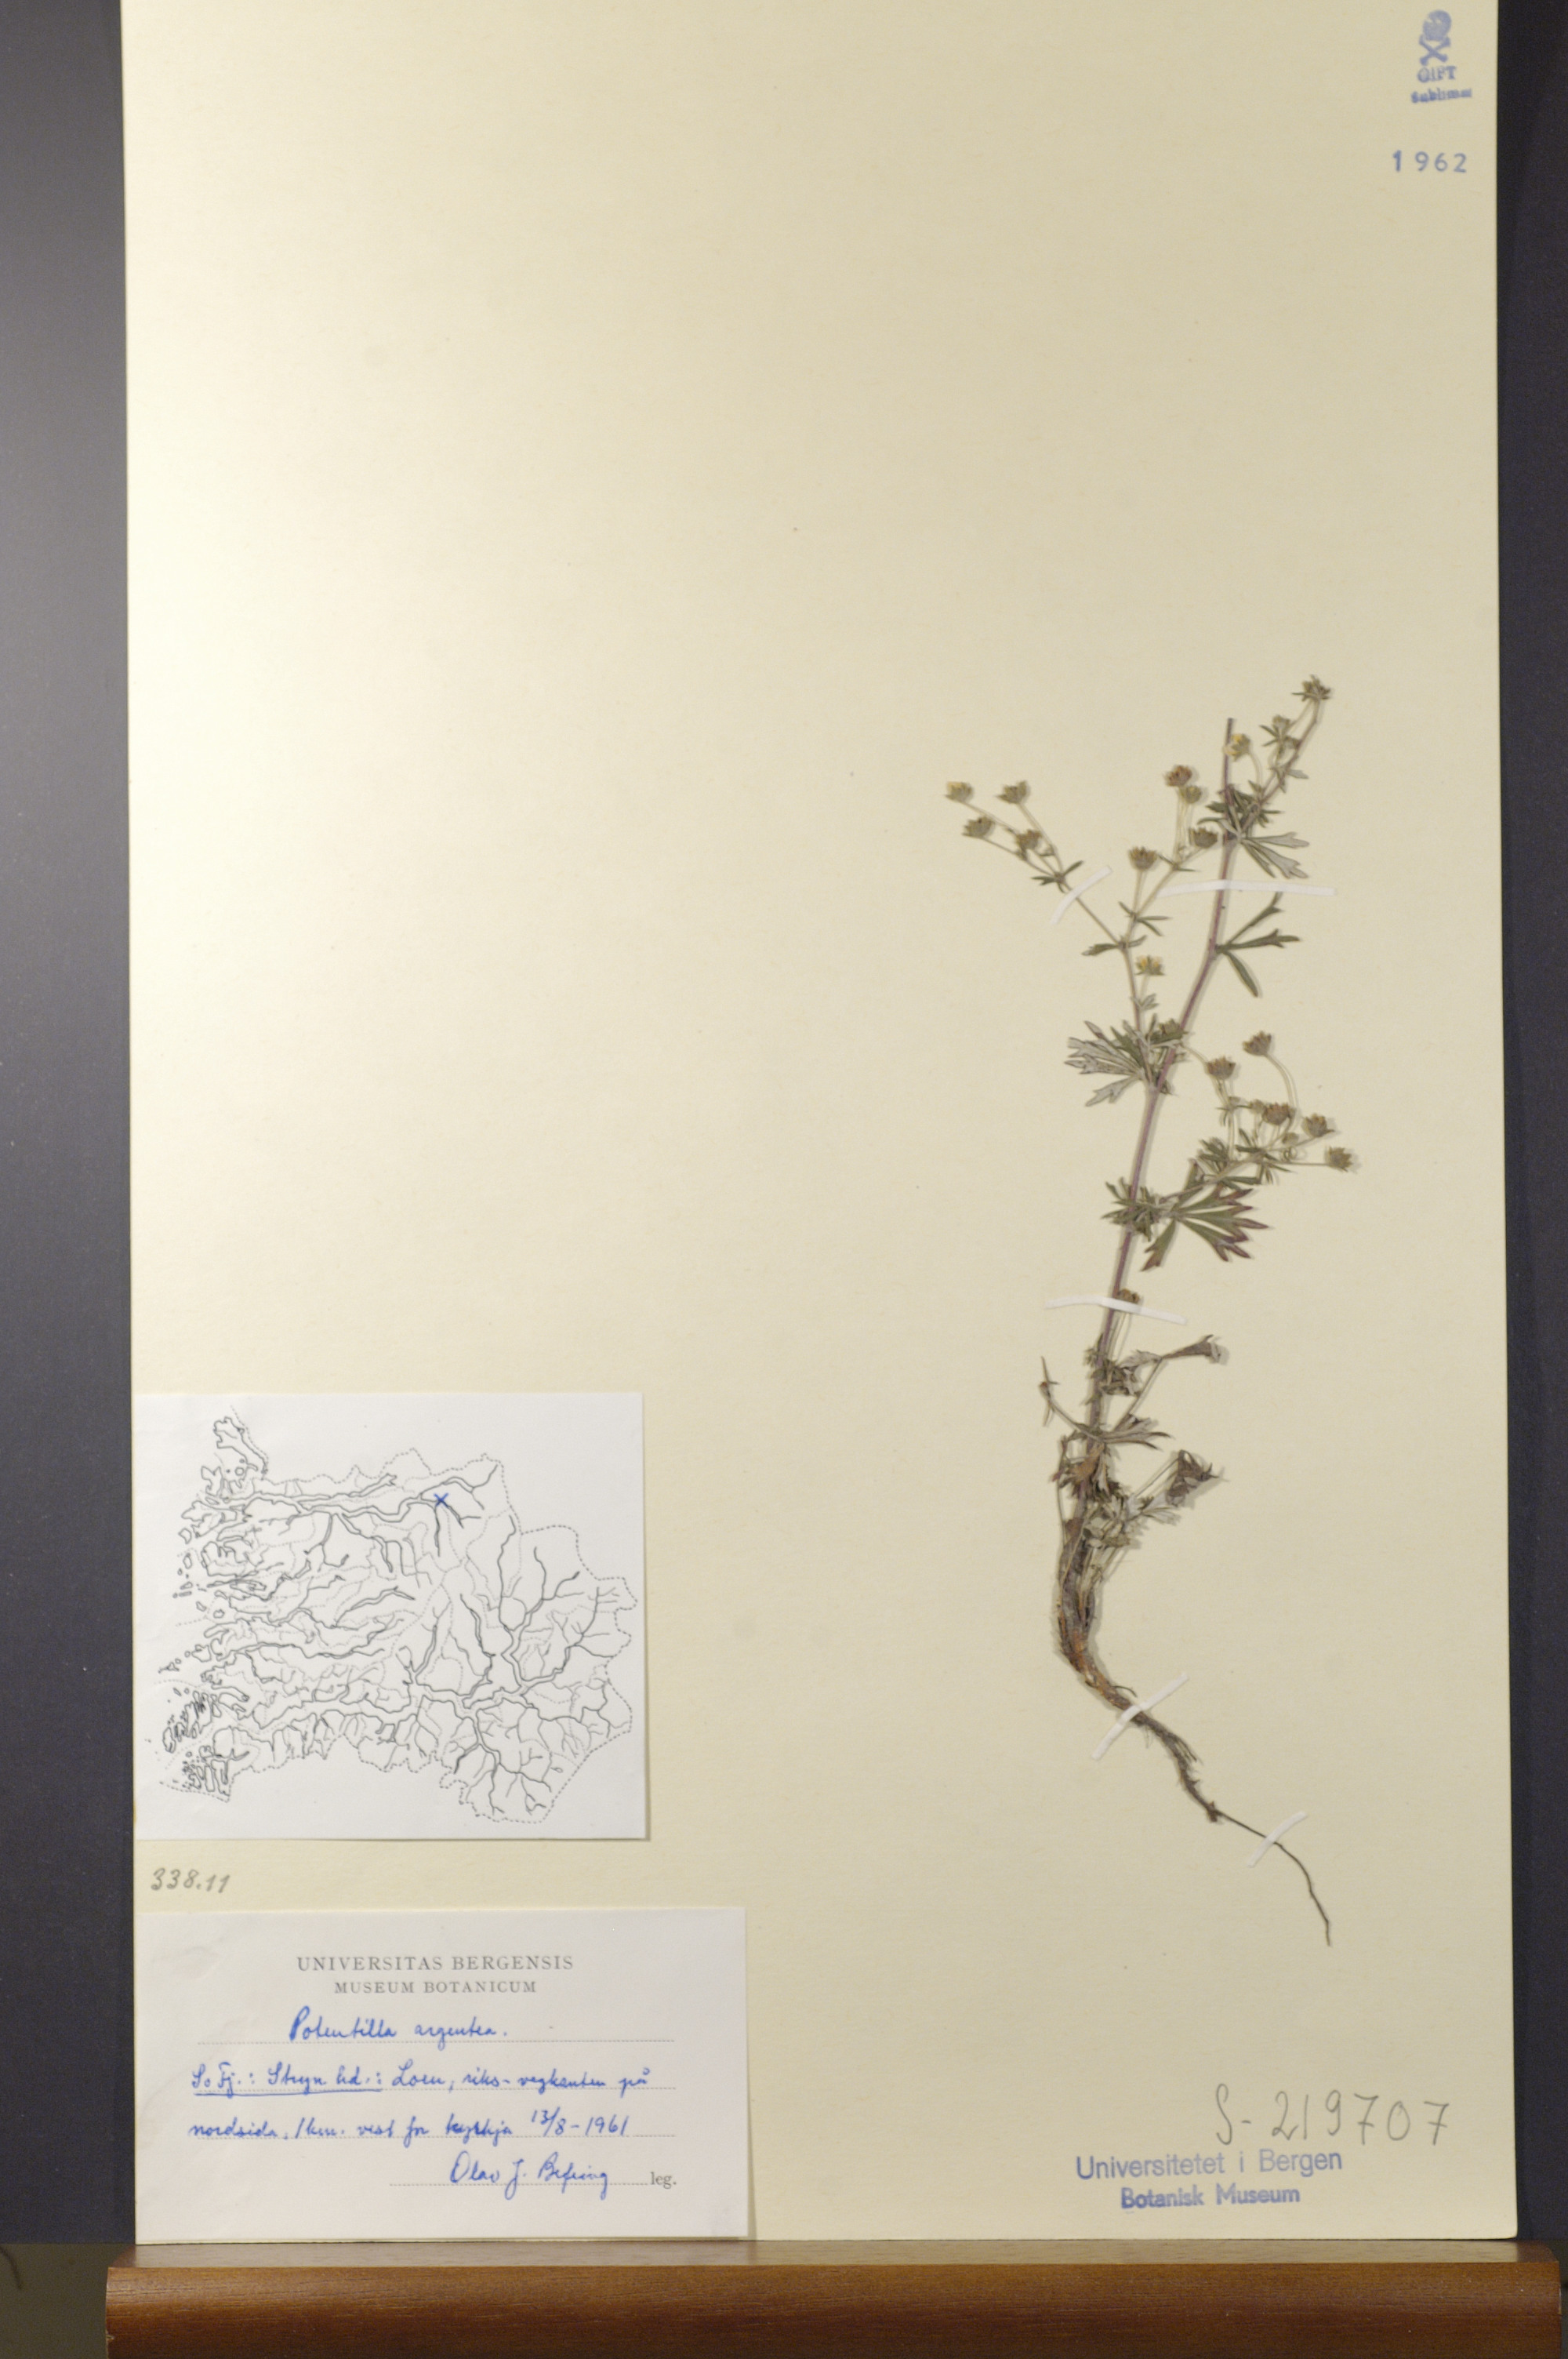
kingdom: Plantae
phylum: Tracheophyta
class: Magnoliopsida
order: Rosales
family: Rosaceae
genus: Potentilla
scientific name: Potentilla argentea
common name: Hoary cinquefoil
